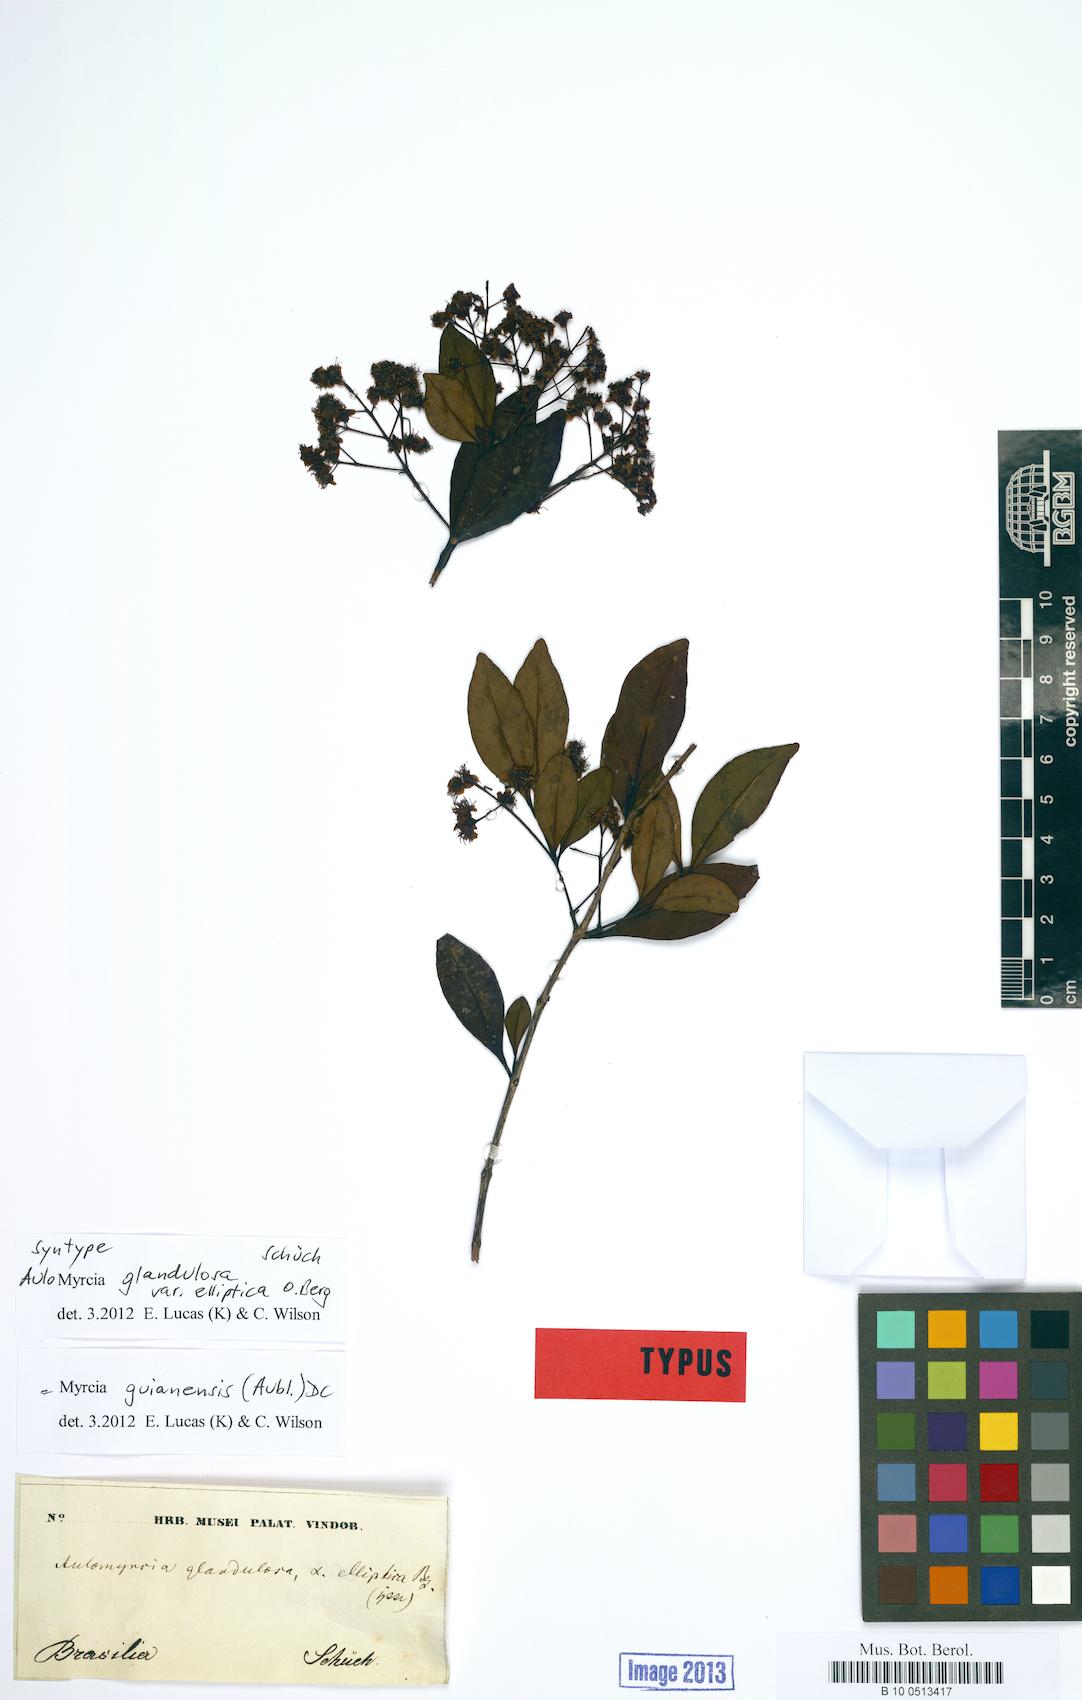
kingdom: Plantae
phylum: Tracheophyta
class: Magnoliopsida
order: Myrtales
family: Myrtaceae
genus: Myrcia
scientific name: Myrcia guianensis
